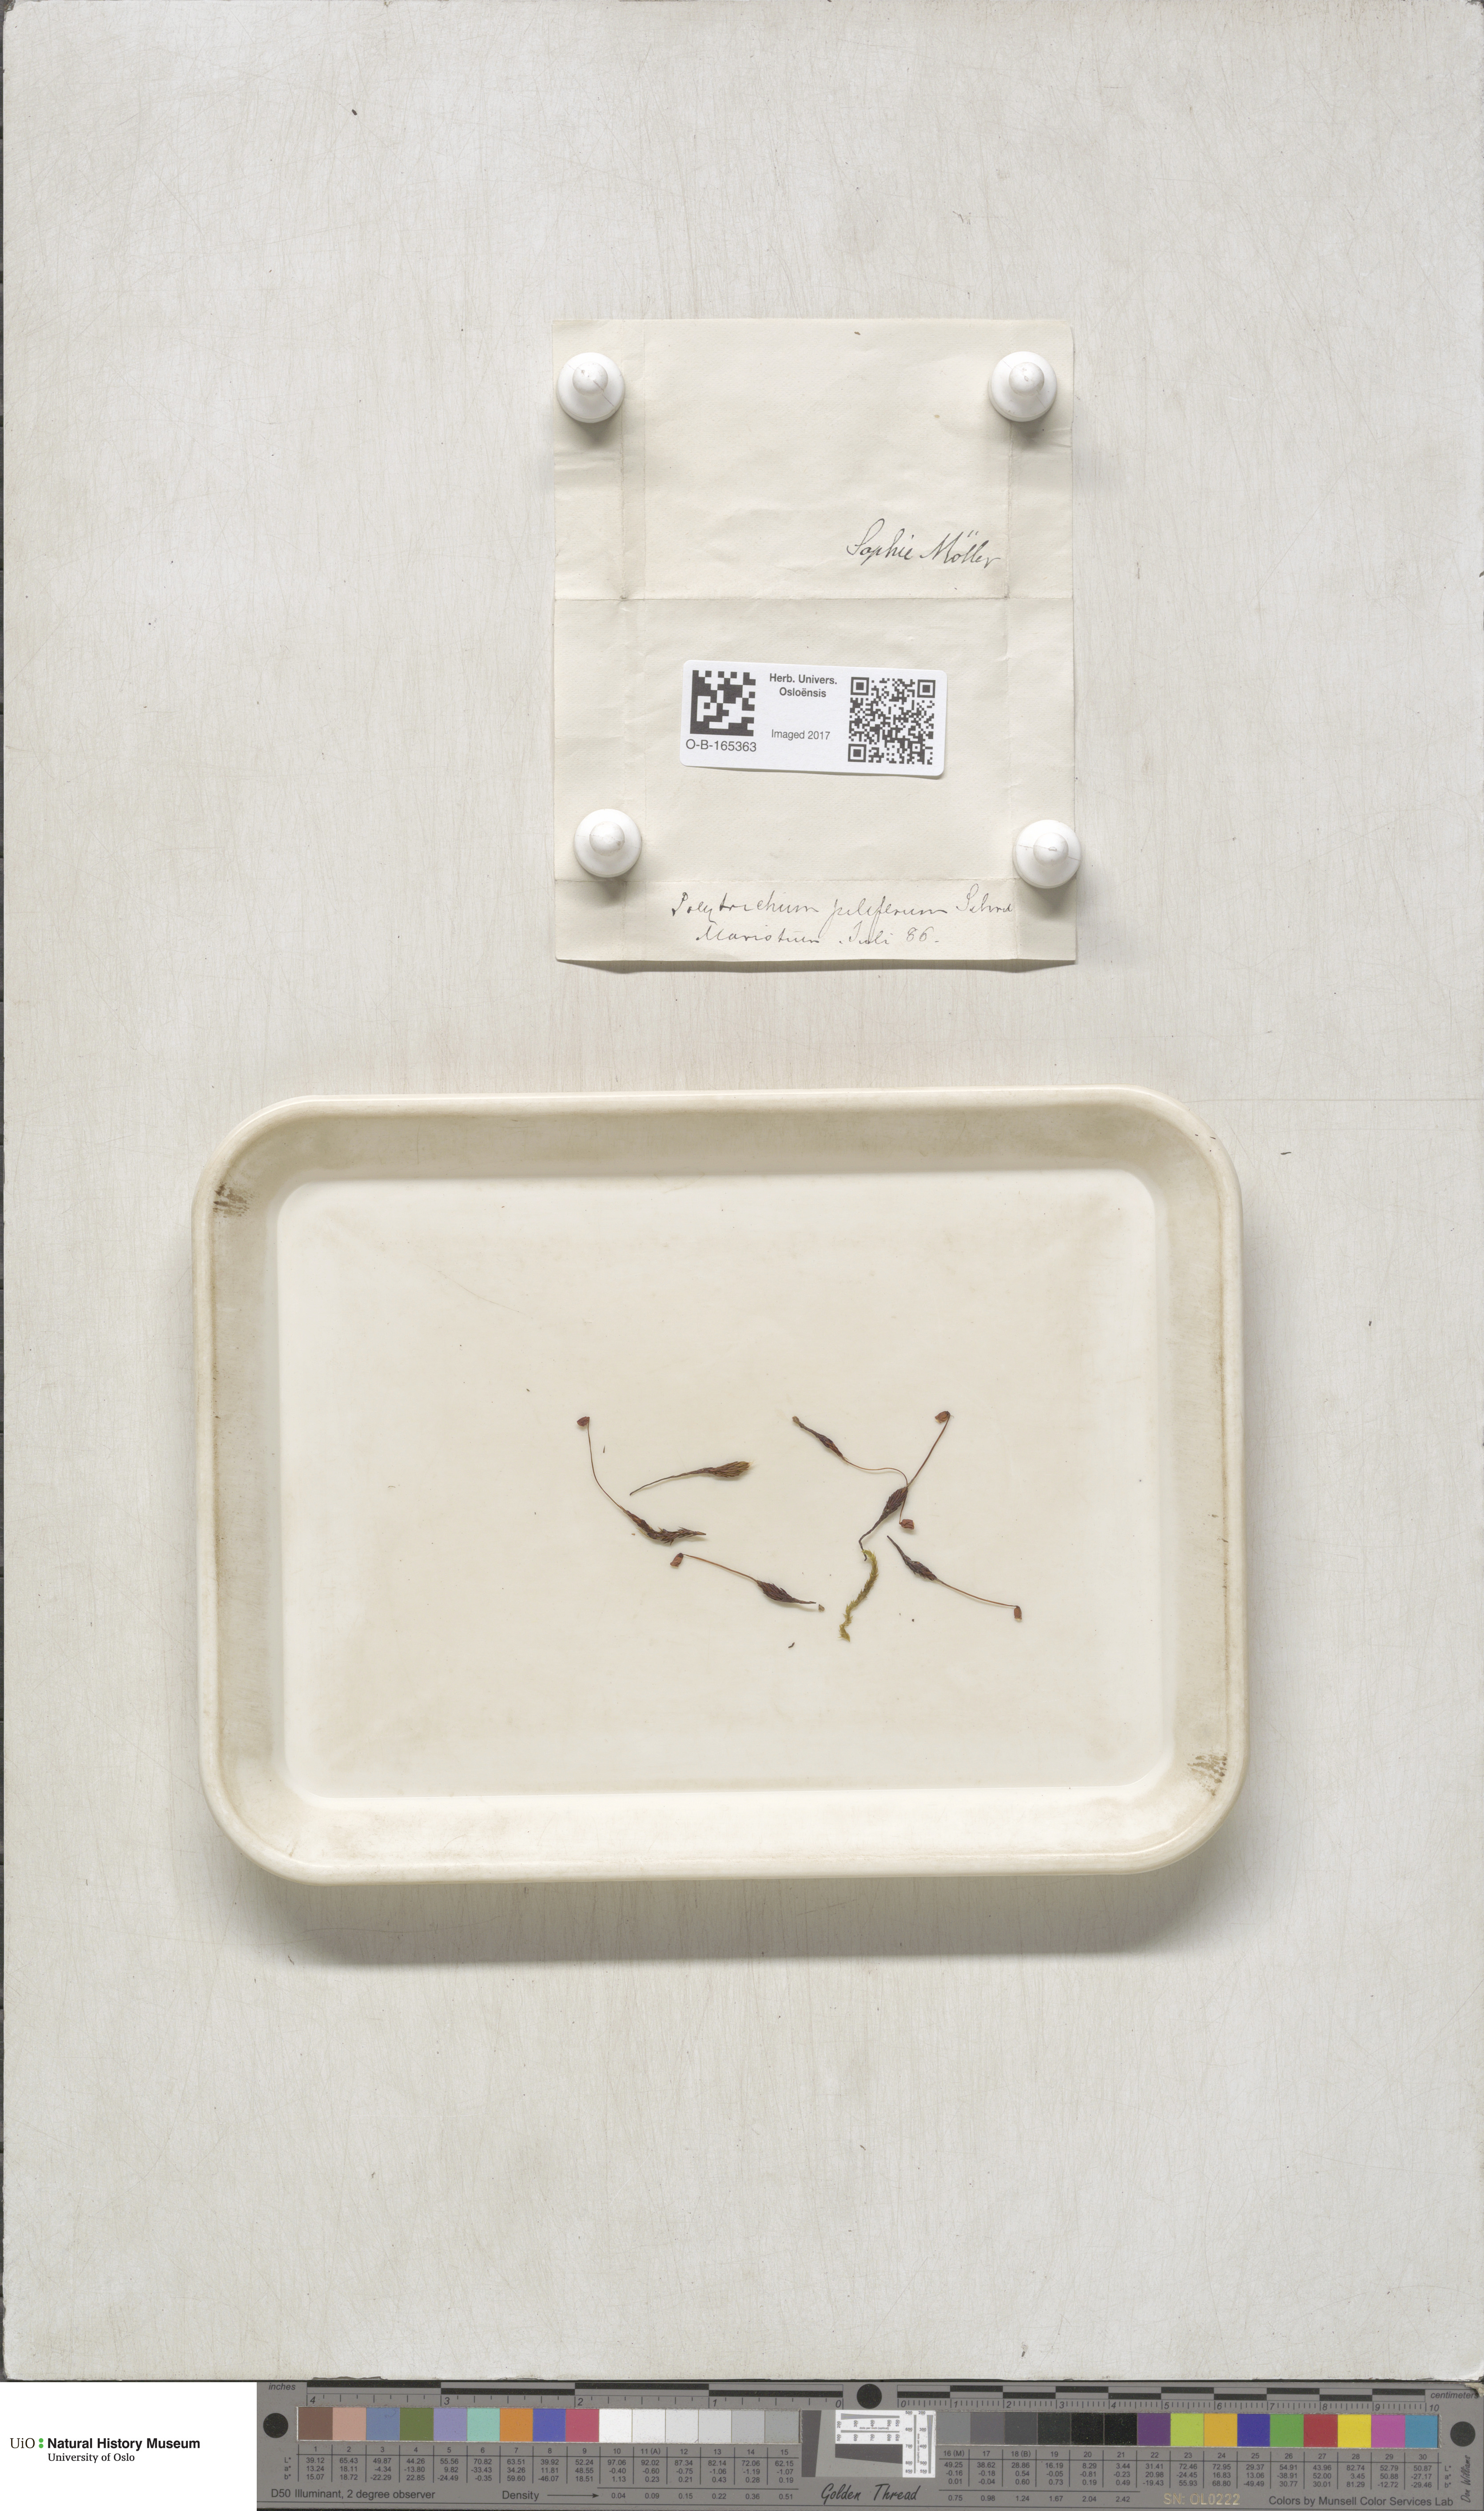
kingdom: Plantae
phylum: Bryophyta
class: Polytrichopsida
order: Polytrichales
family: Polytrichaceae
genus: Polytrichum
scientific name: Polytrichum piliferum
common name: Bristly haircap
